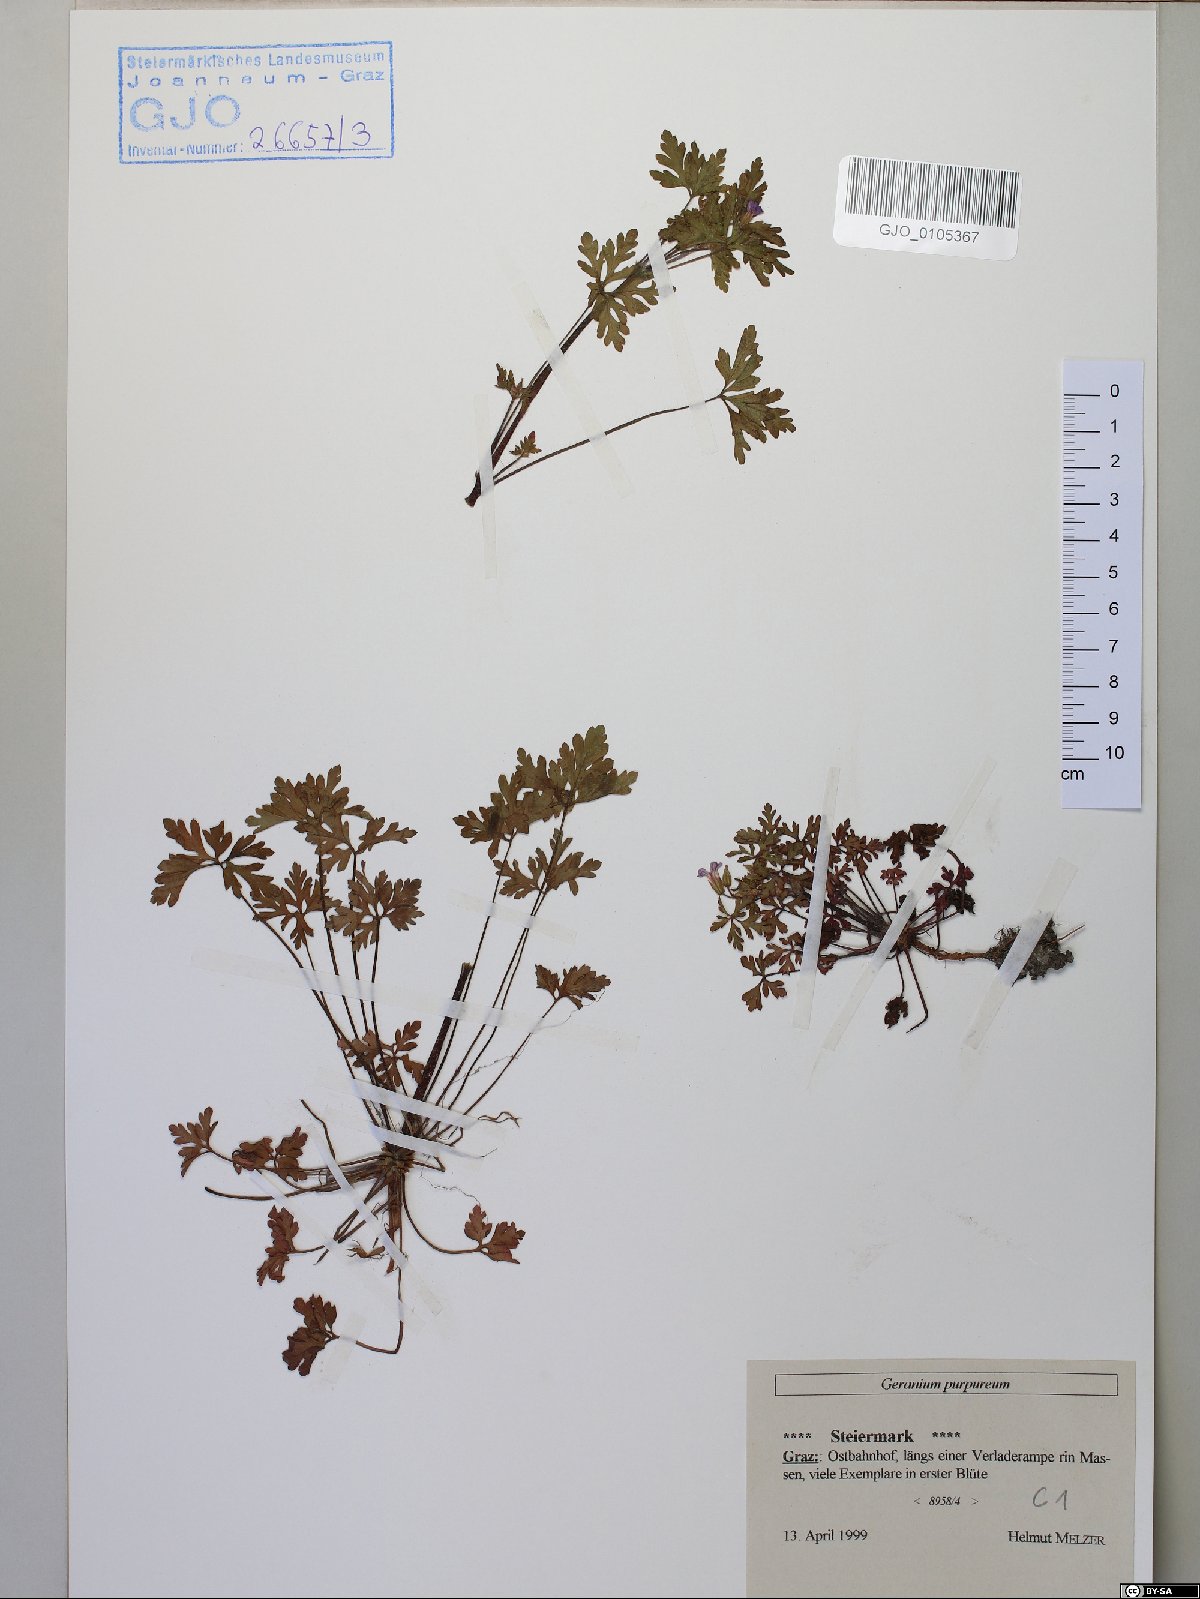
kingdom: Plantae
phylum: Tracheophyta
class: Magnoliopsida
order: Geraniales
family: Geraniaceae
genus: Geranium
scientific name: Geranium purpureum
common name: Little-robin
